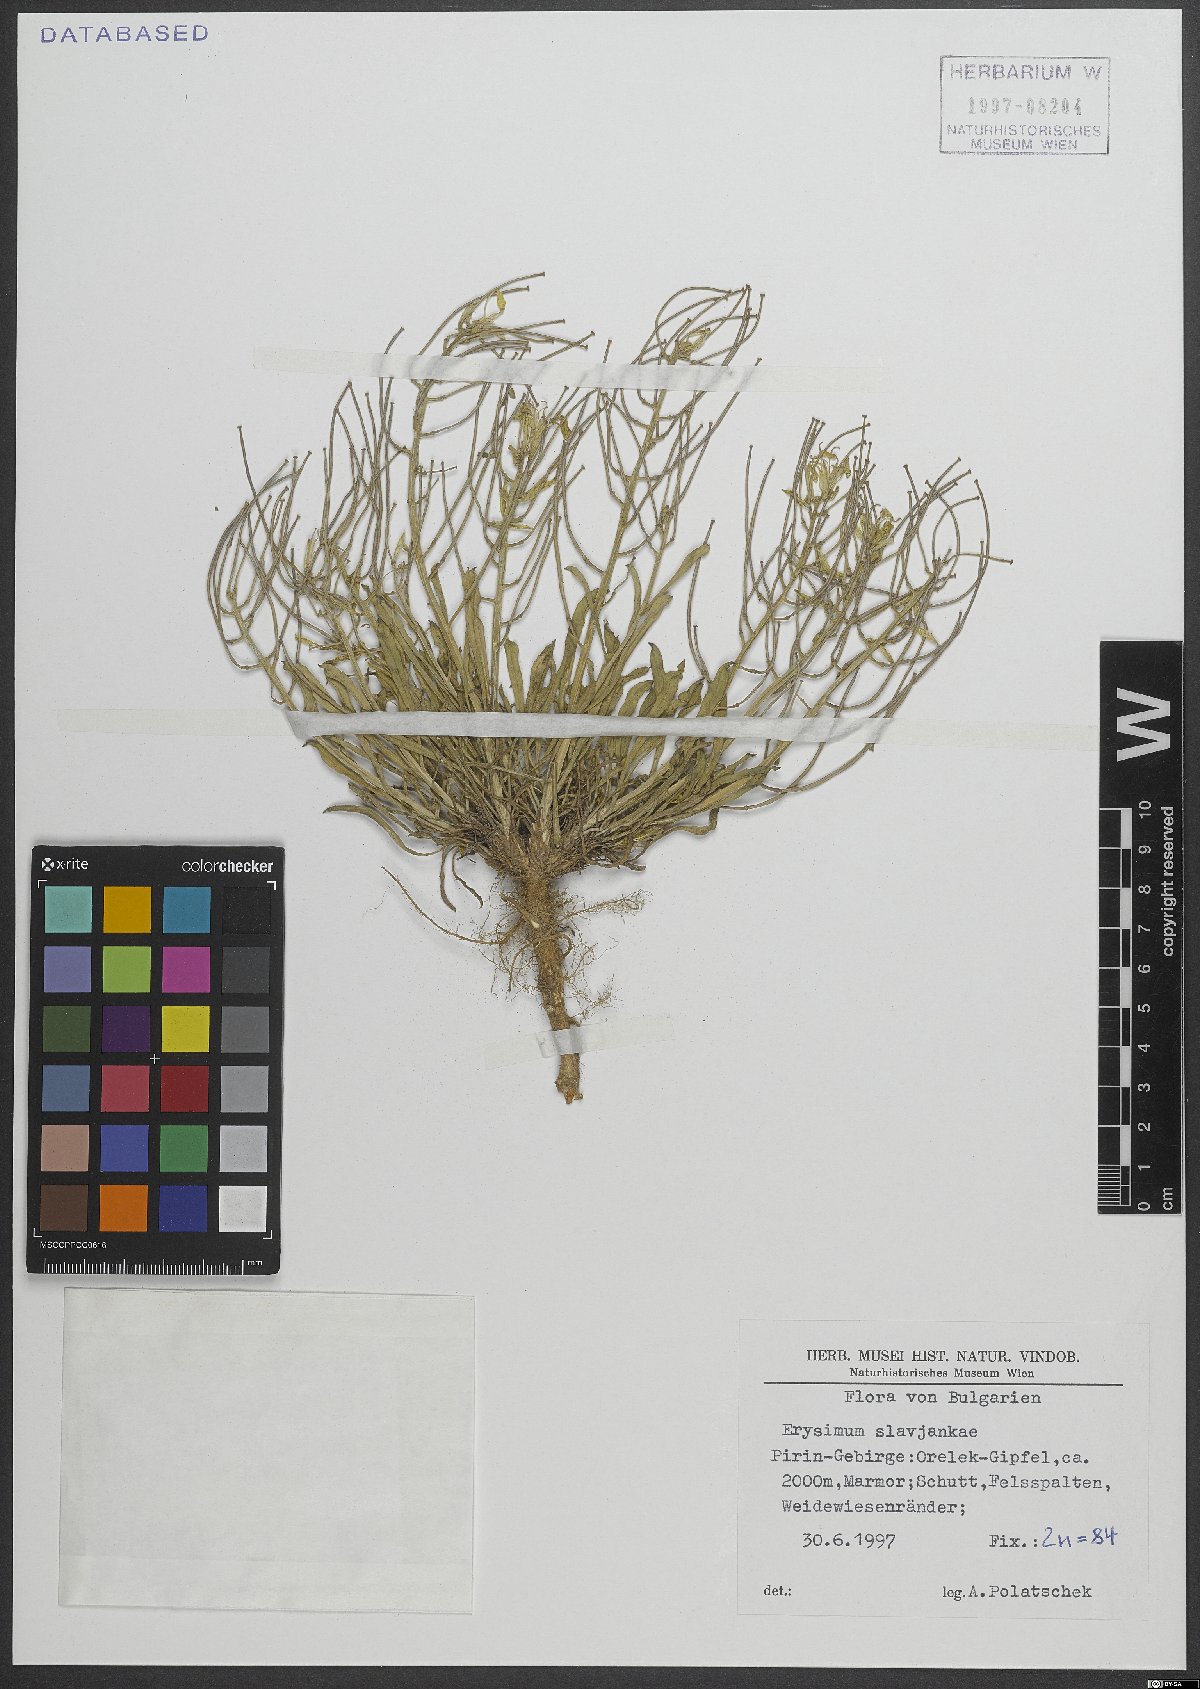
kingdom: Plantae
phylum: Tracheophyta
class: Magnoliopsida
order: Brassicales
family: Brassicaceae
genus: Erysimum
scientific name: Erysimum slavjankae
